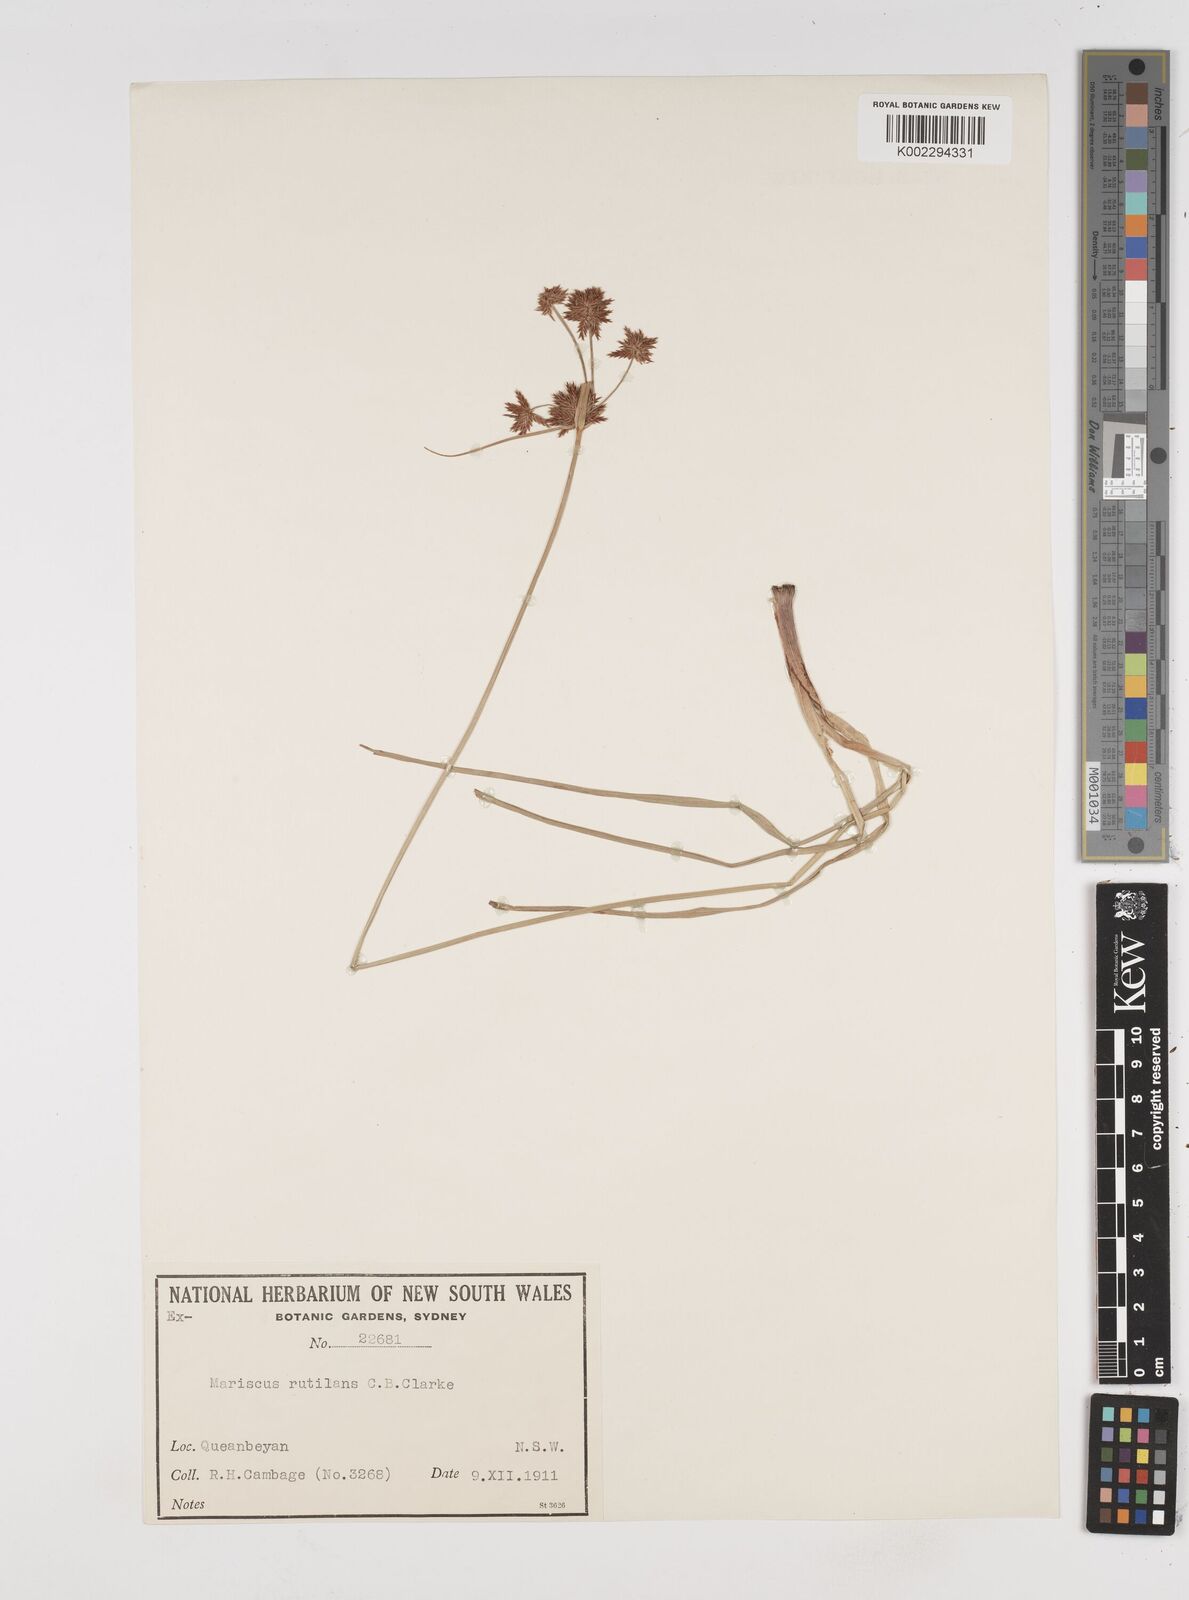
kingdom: Plantae
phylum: Tracheophyta
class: Liliopsida
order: Poales
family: Cyperaceae
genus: Cyperus
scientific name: Cyperus lhotskyanus
